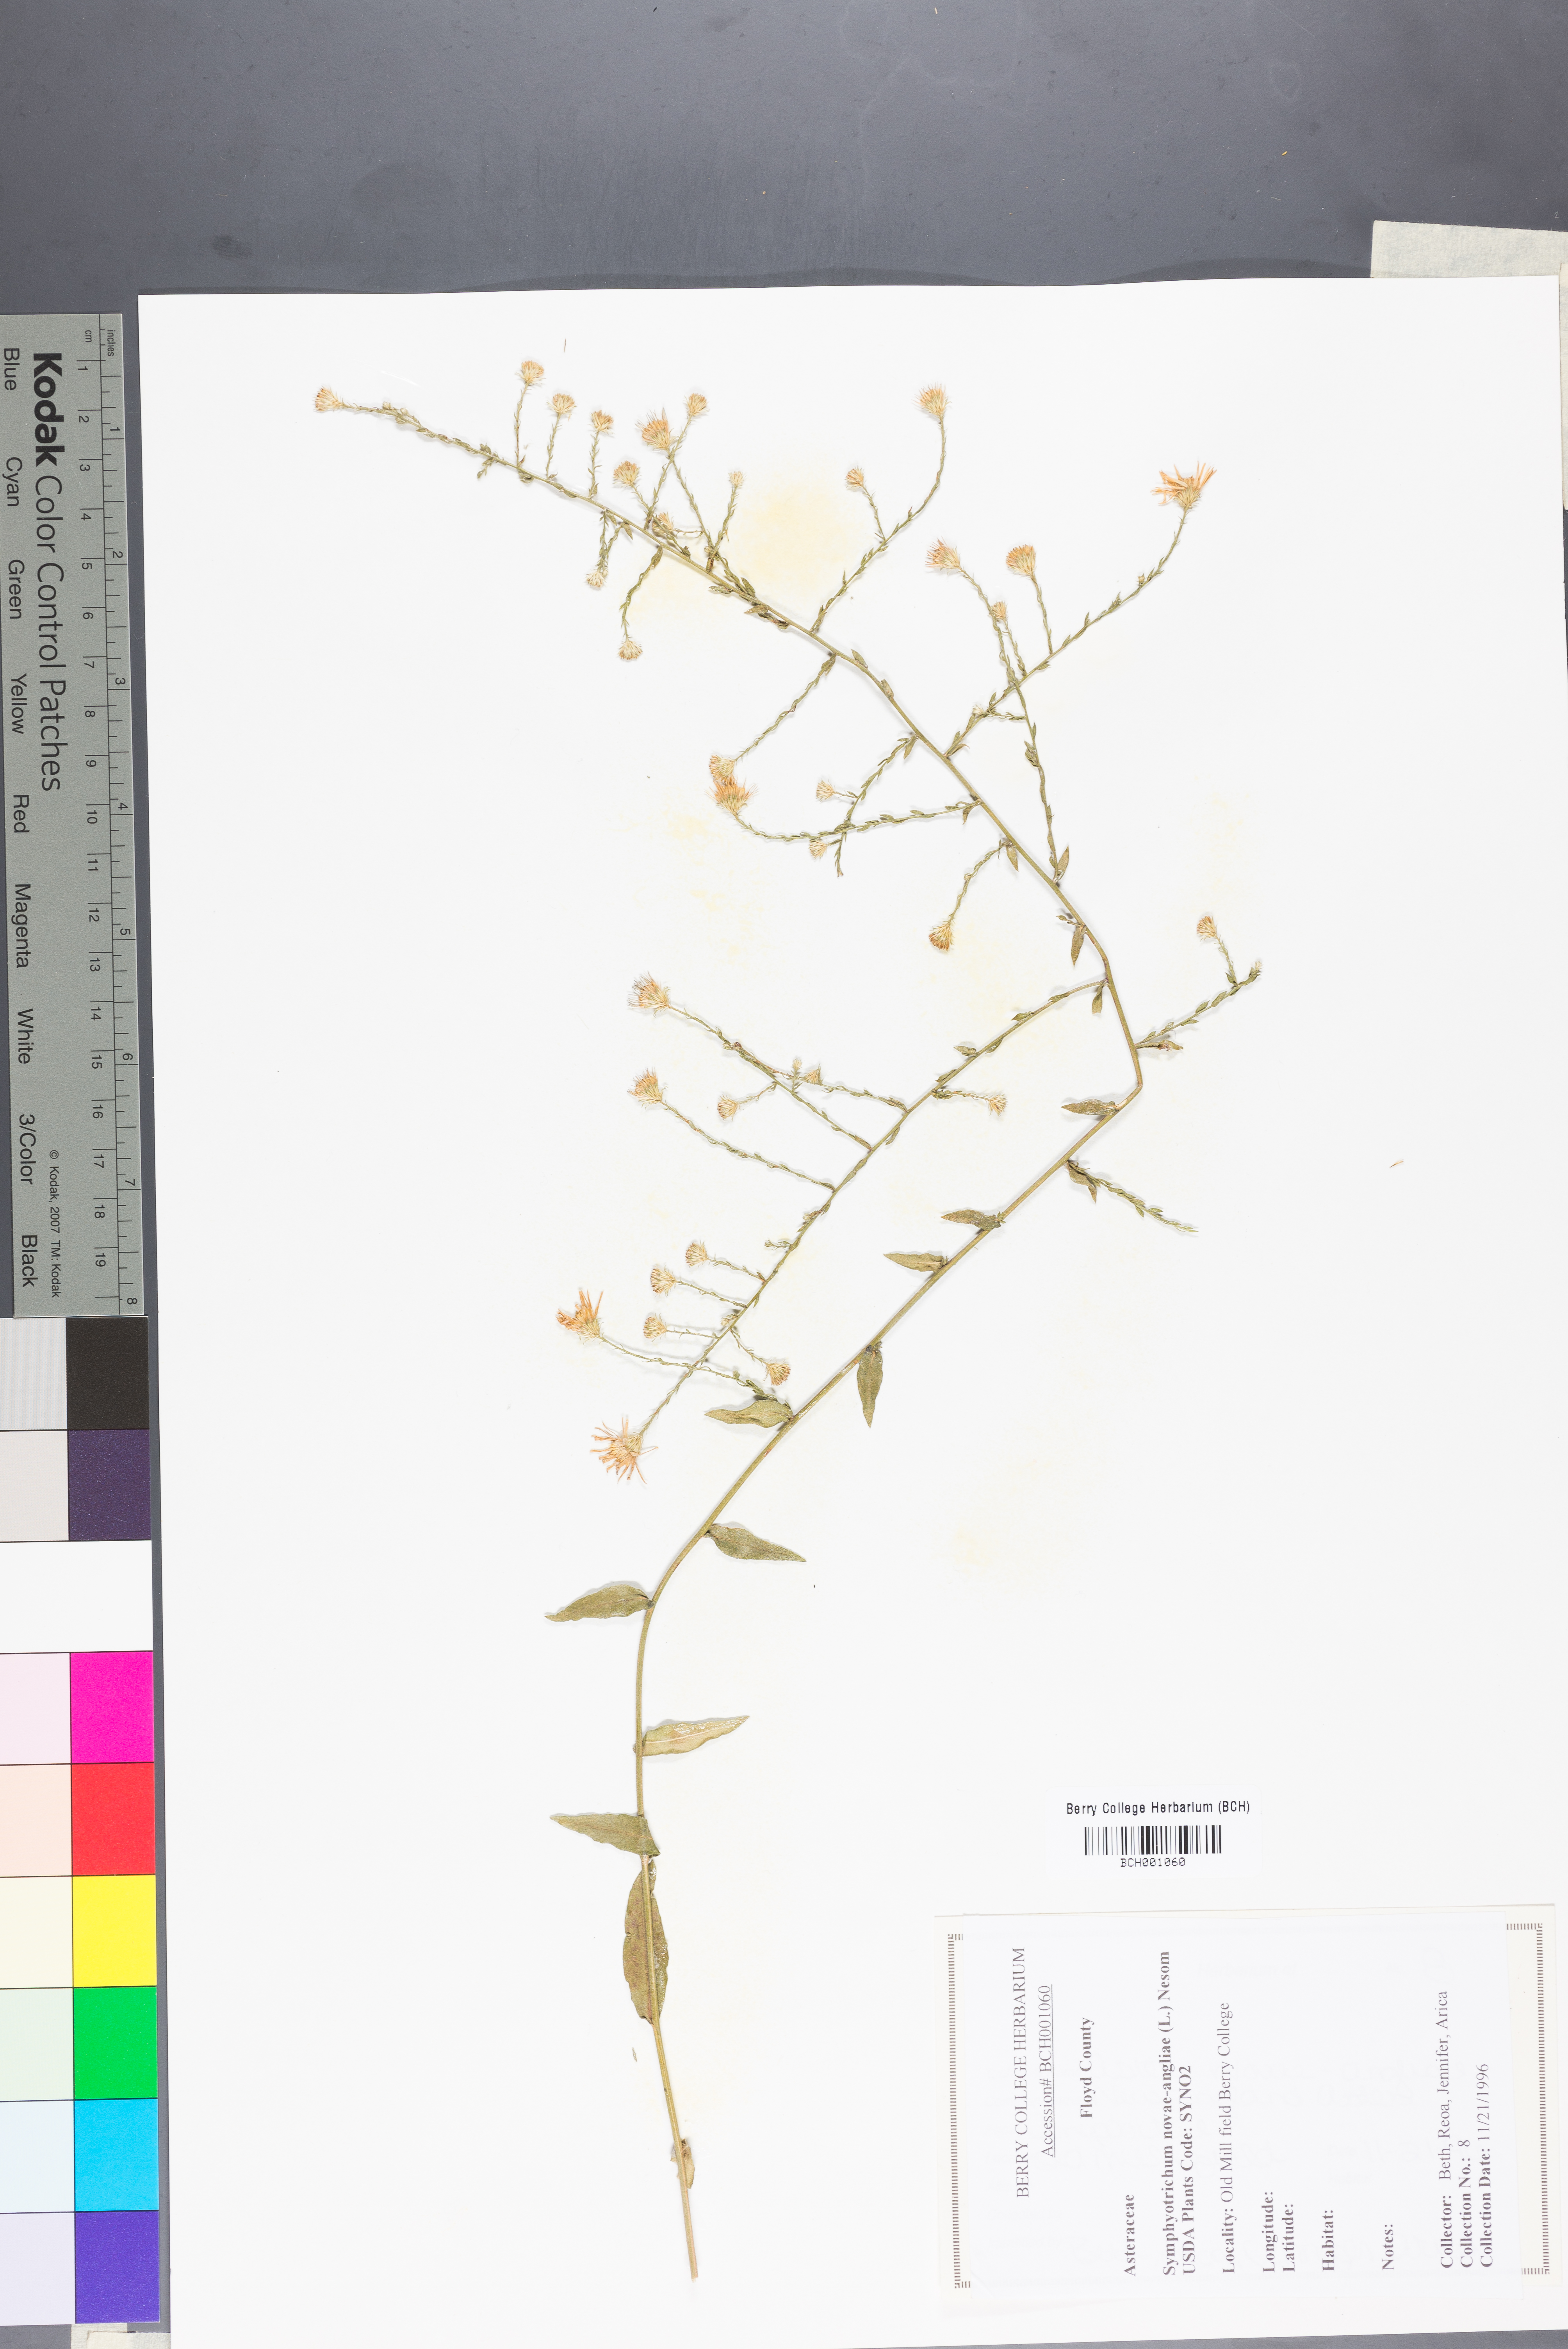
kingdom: Plantae
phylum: Tracheophyta
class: Magnoliopsida
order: Asterales
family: Asteraceae
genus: Symphyotrichum
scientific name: Symphyotrichum novae-angliae
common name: Michaelmas daisy
